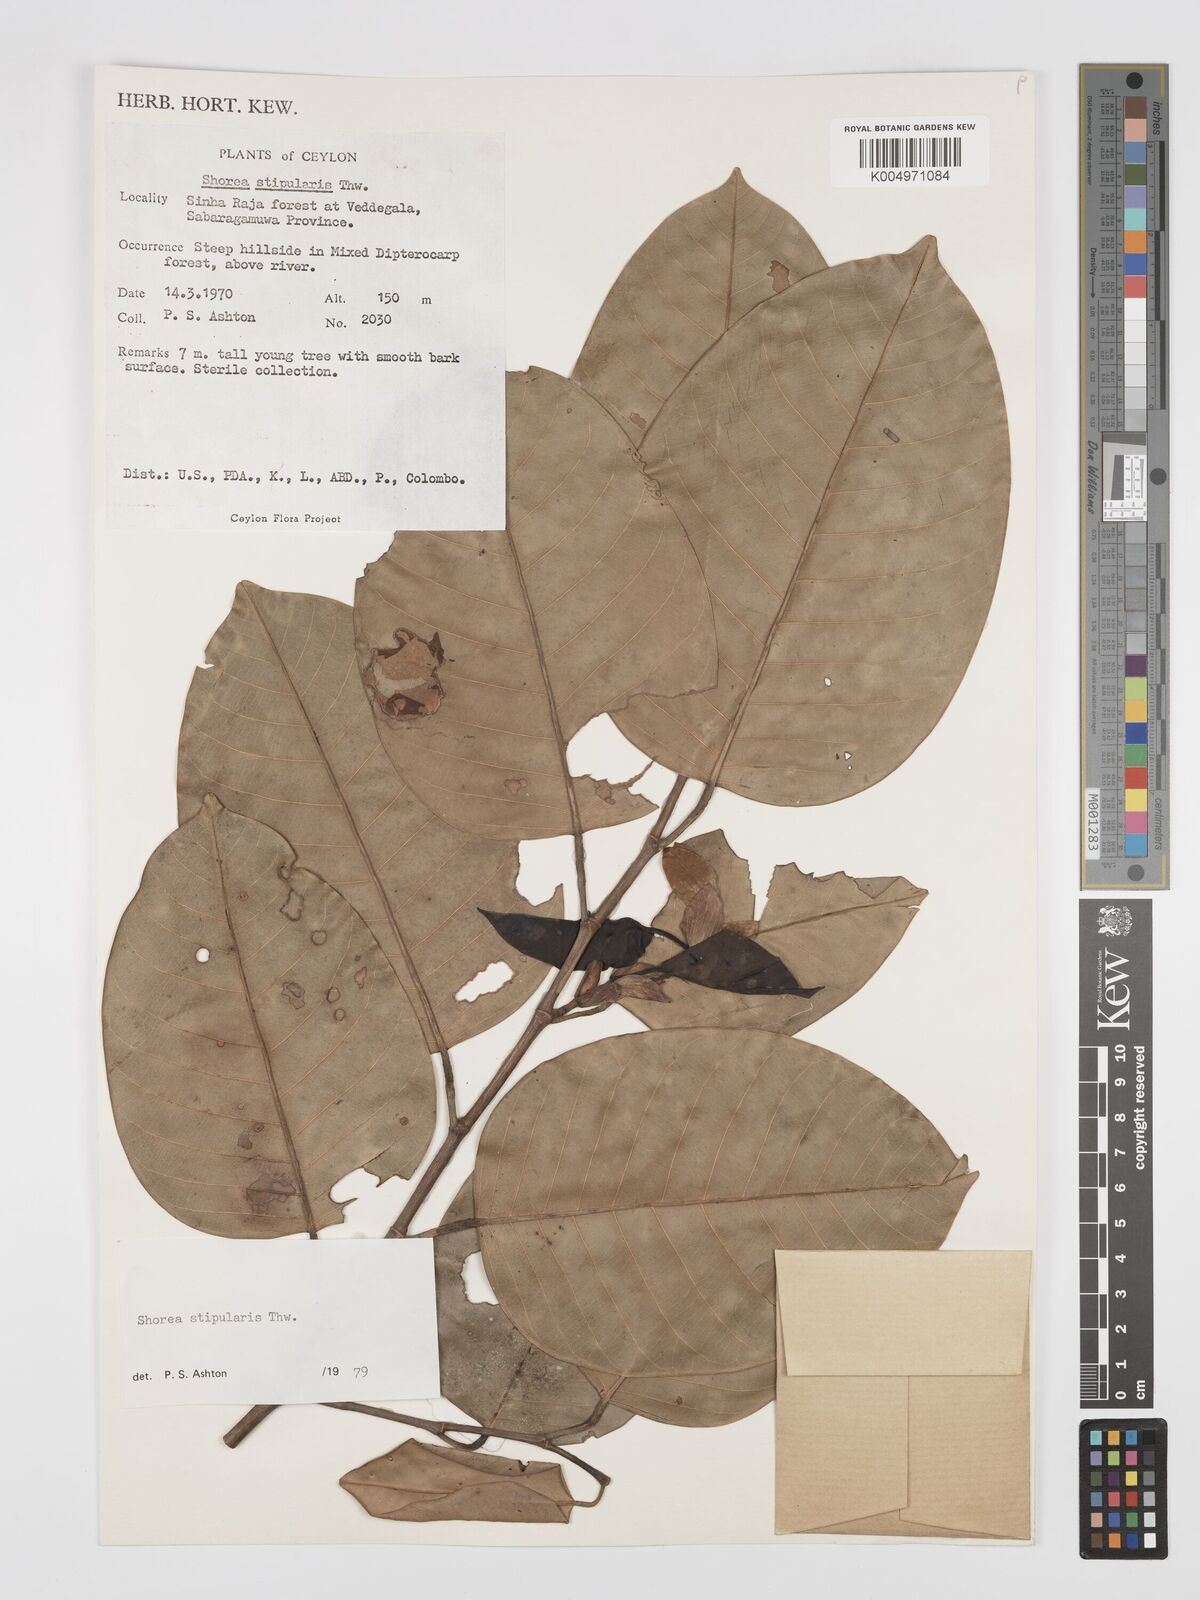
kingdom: Plantae
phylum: Tracheophyta
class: Magnoliopsida
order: Malvales
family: Dipterocarpaceae
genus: Anthoshorea
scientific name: Anthoshorea stipularis
